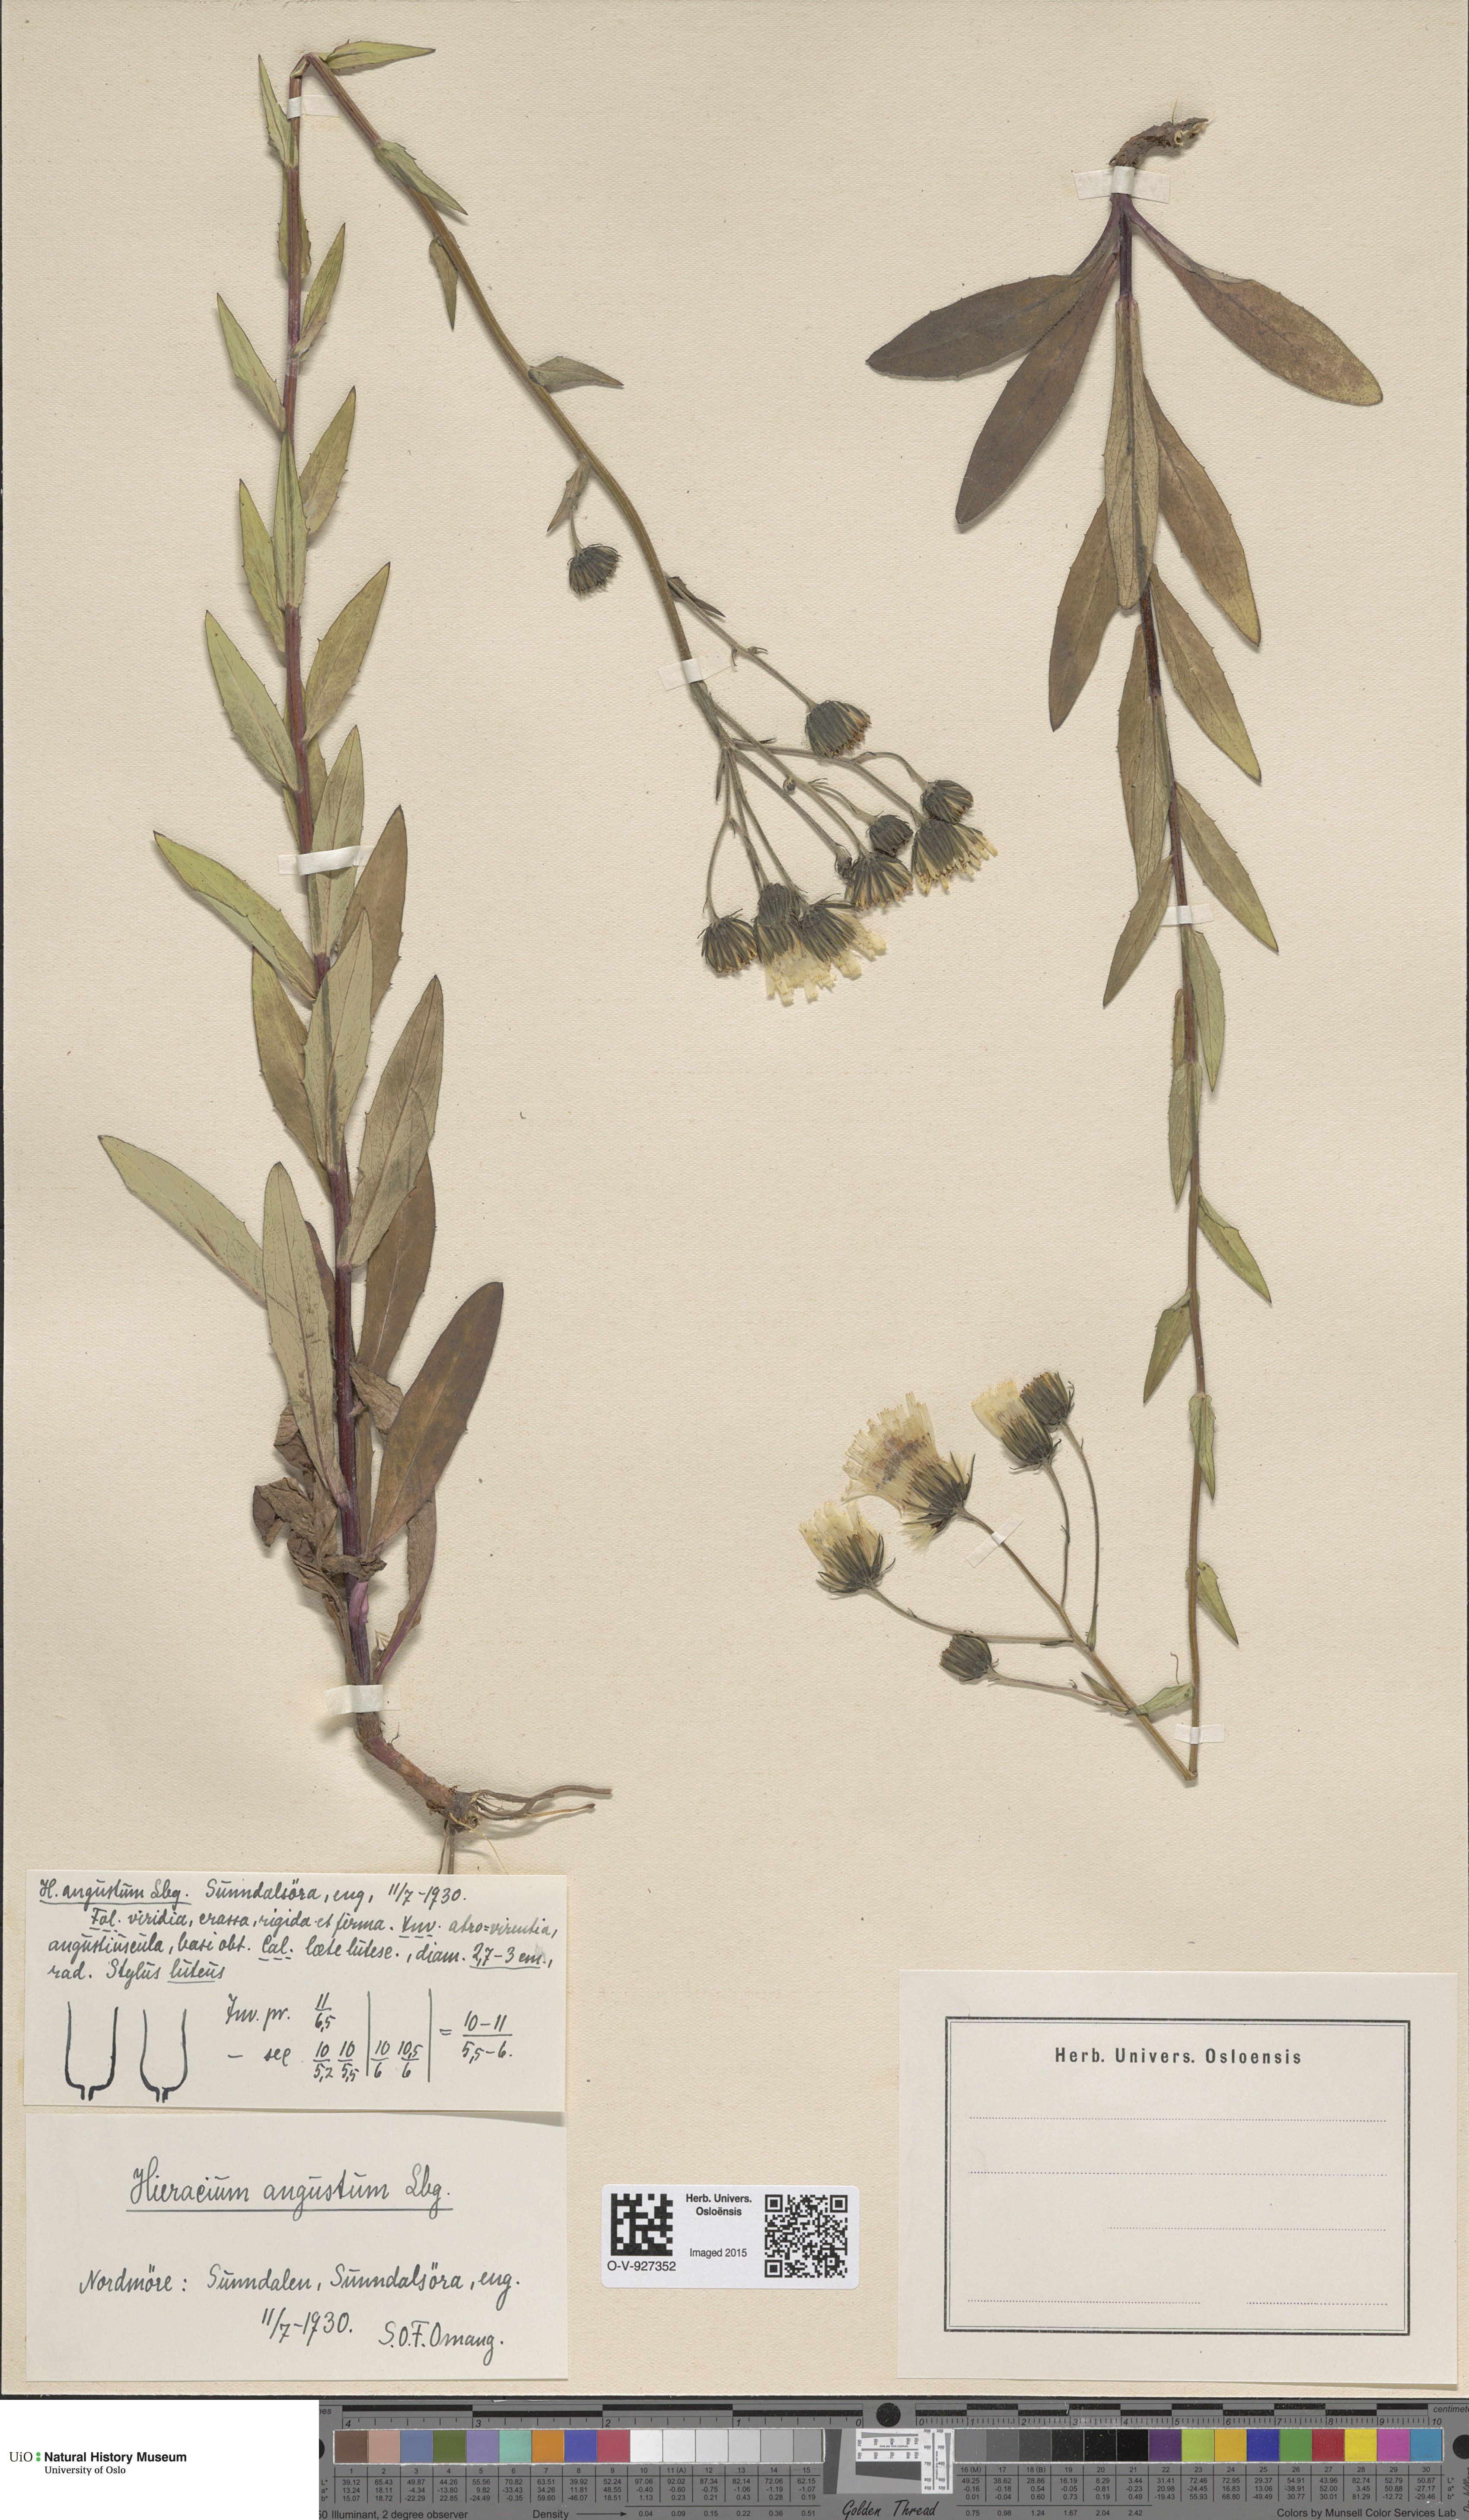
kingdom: Plantae
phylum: Tracheophyta
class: Magnoliopsida
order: Asterales
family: Asteraceae
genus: Hieracium
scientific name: Hieracium angustum
